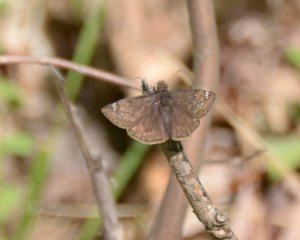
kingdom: Animalia
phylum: Arthropoda
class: Insecta
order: Lepidoptera
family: Hesperiidae
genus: Gesta
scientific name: Gesta
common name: Juvenal's Duskywing
